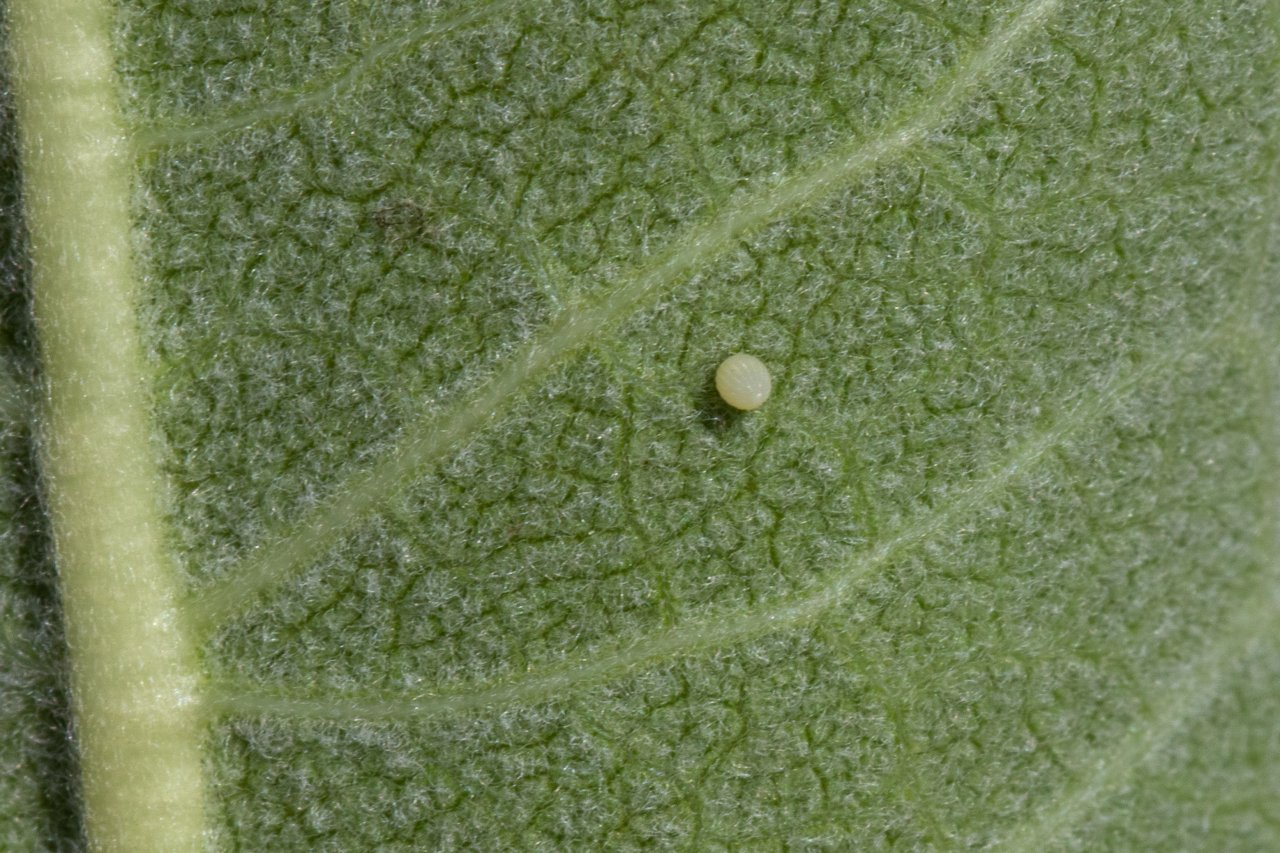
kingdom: Animalia
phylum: Arthropoda
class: Insecta
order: Lepidoptera
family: Nymphalidae
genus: Danaus
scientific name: Danaus plexippus
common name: Monarch
